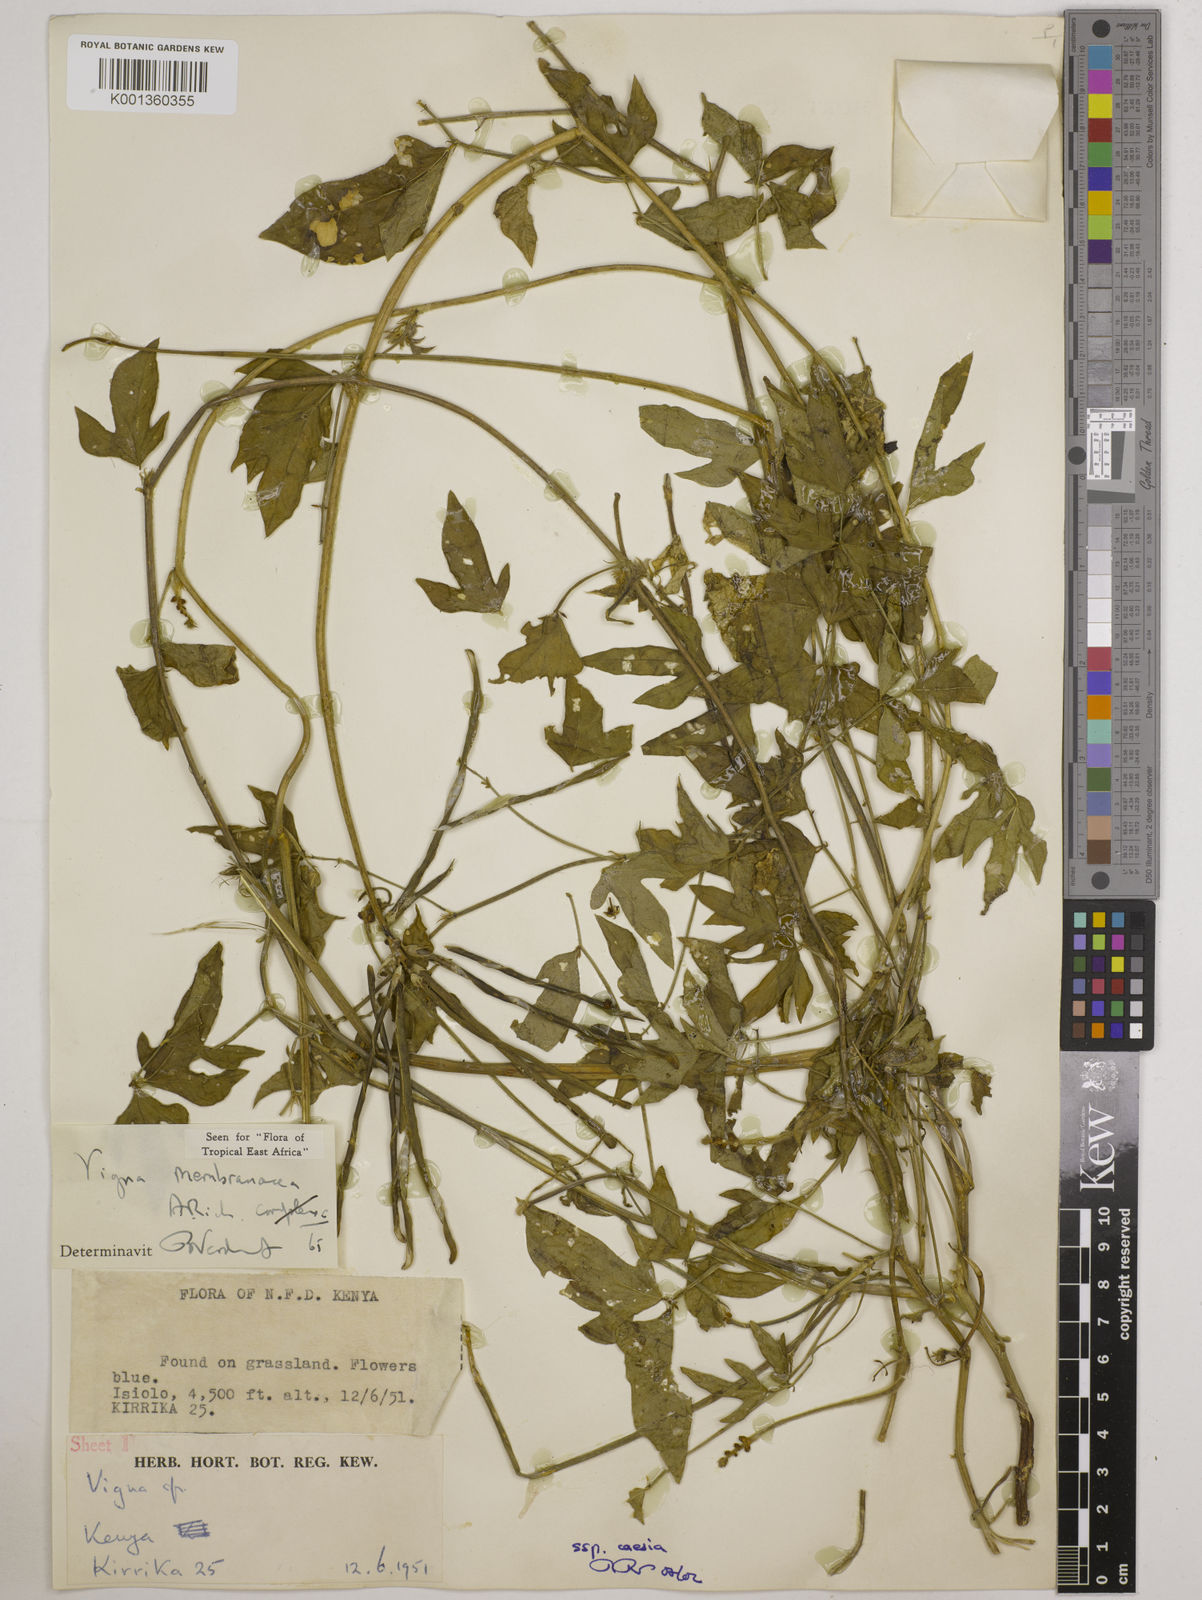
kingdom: Plantae
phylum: Tracheophyta
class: Magnoliopsida
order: Fabales
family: Fabaceae
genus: Vigna
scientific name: Vigna
